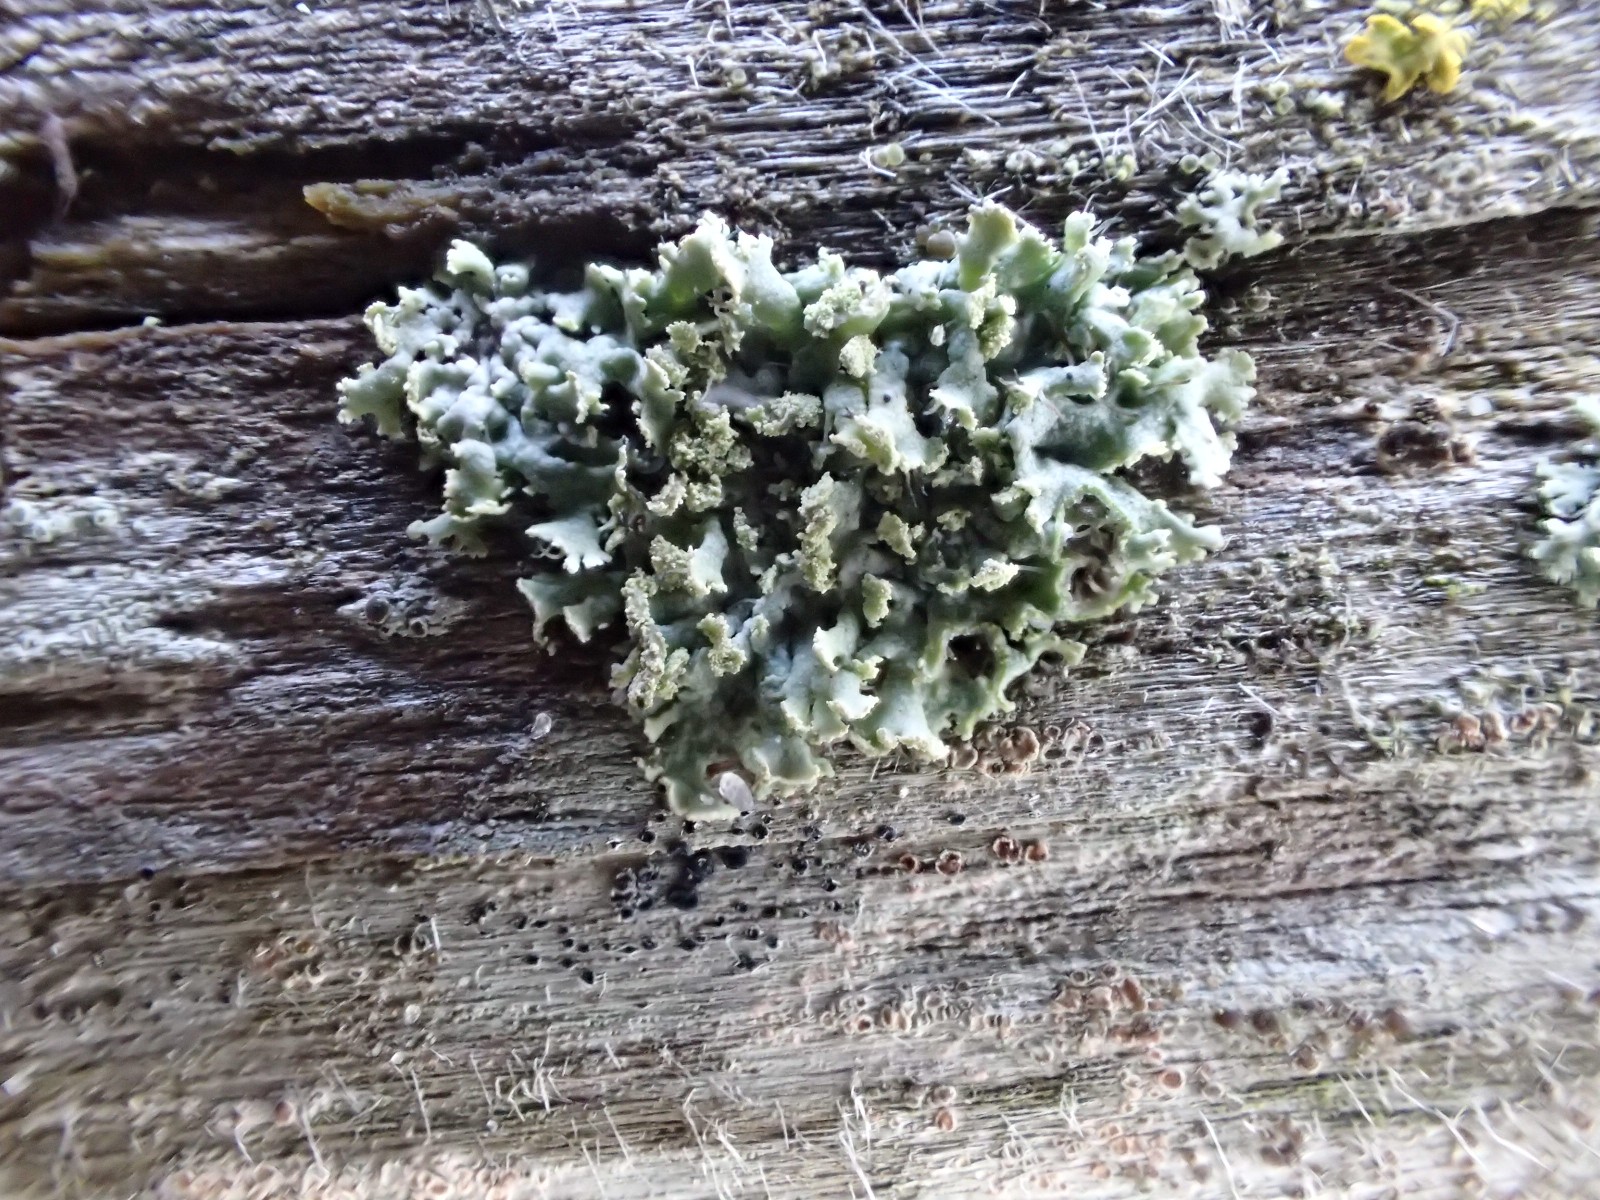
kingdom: Fungi
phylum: Ascomycota
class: Lecanoromycetes
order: Caliciales
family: Physciaceae
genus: Physcia
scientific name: Physcia tenella
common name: spæd rosetlav
